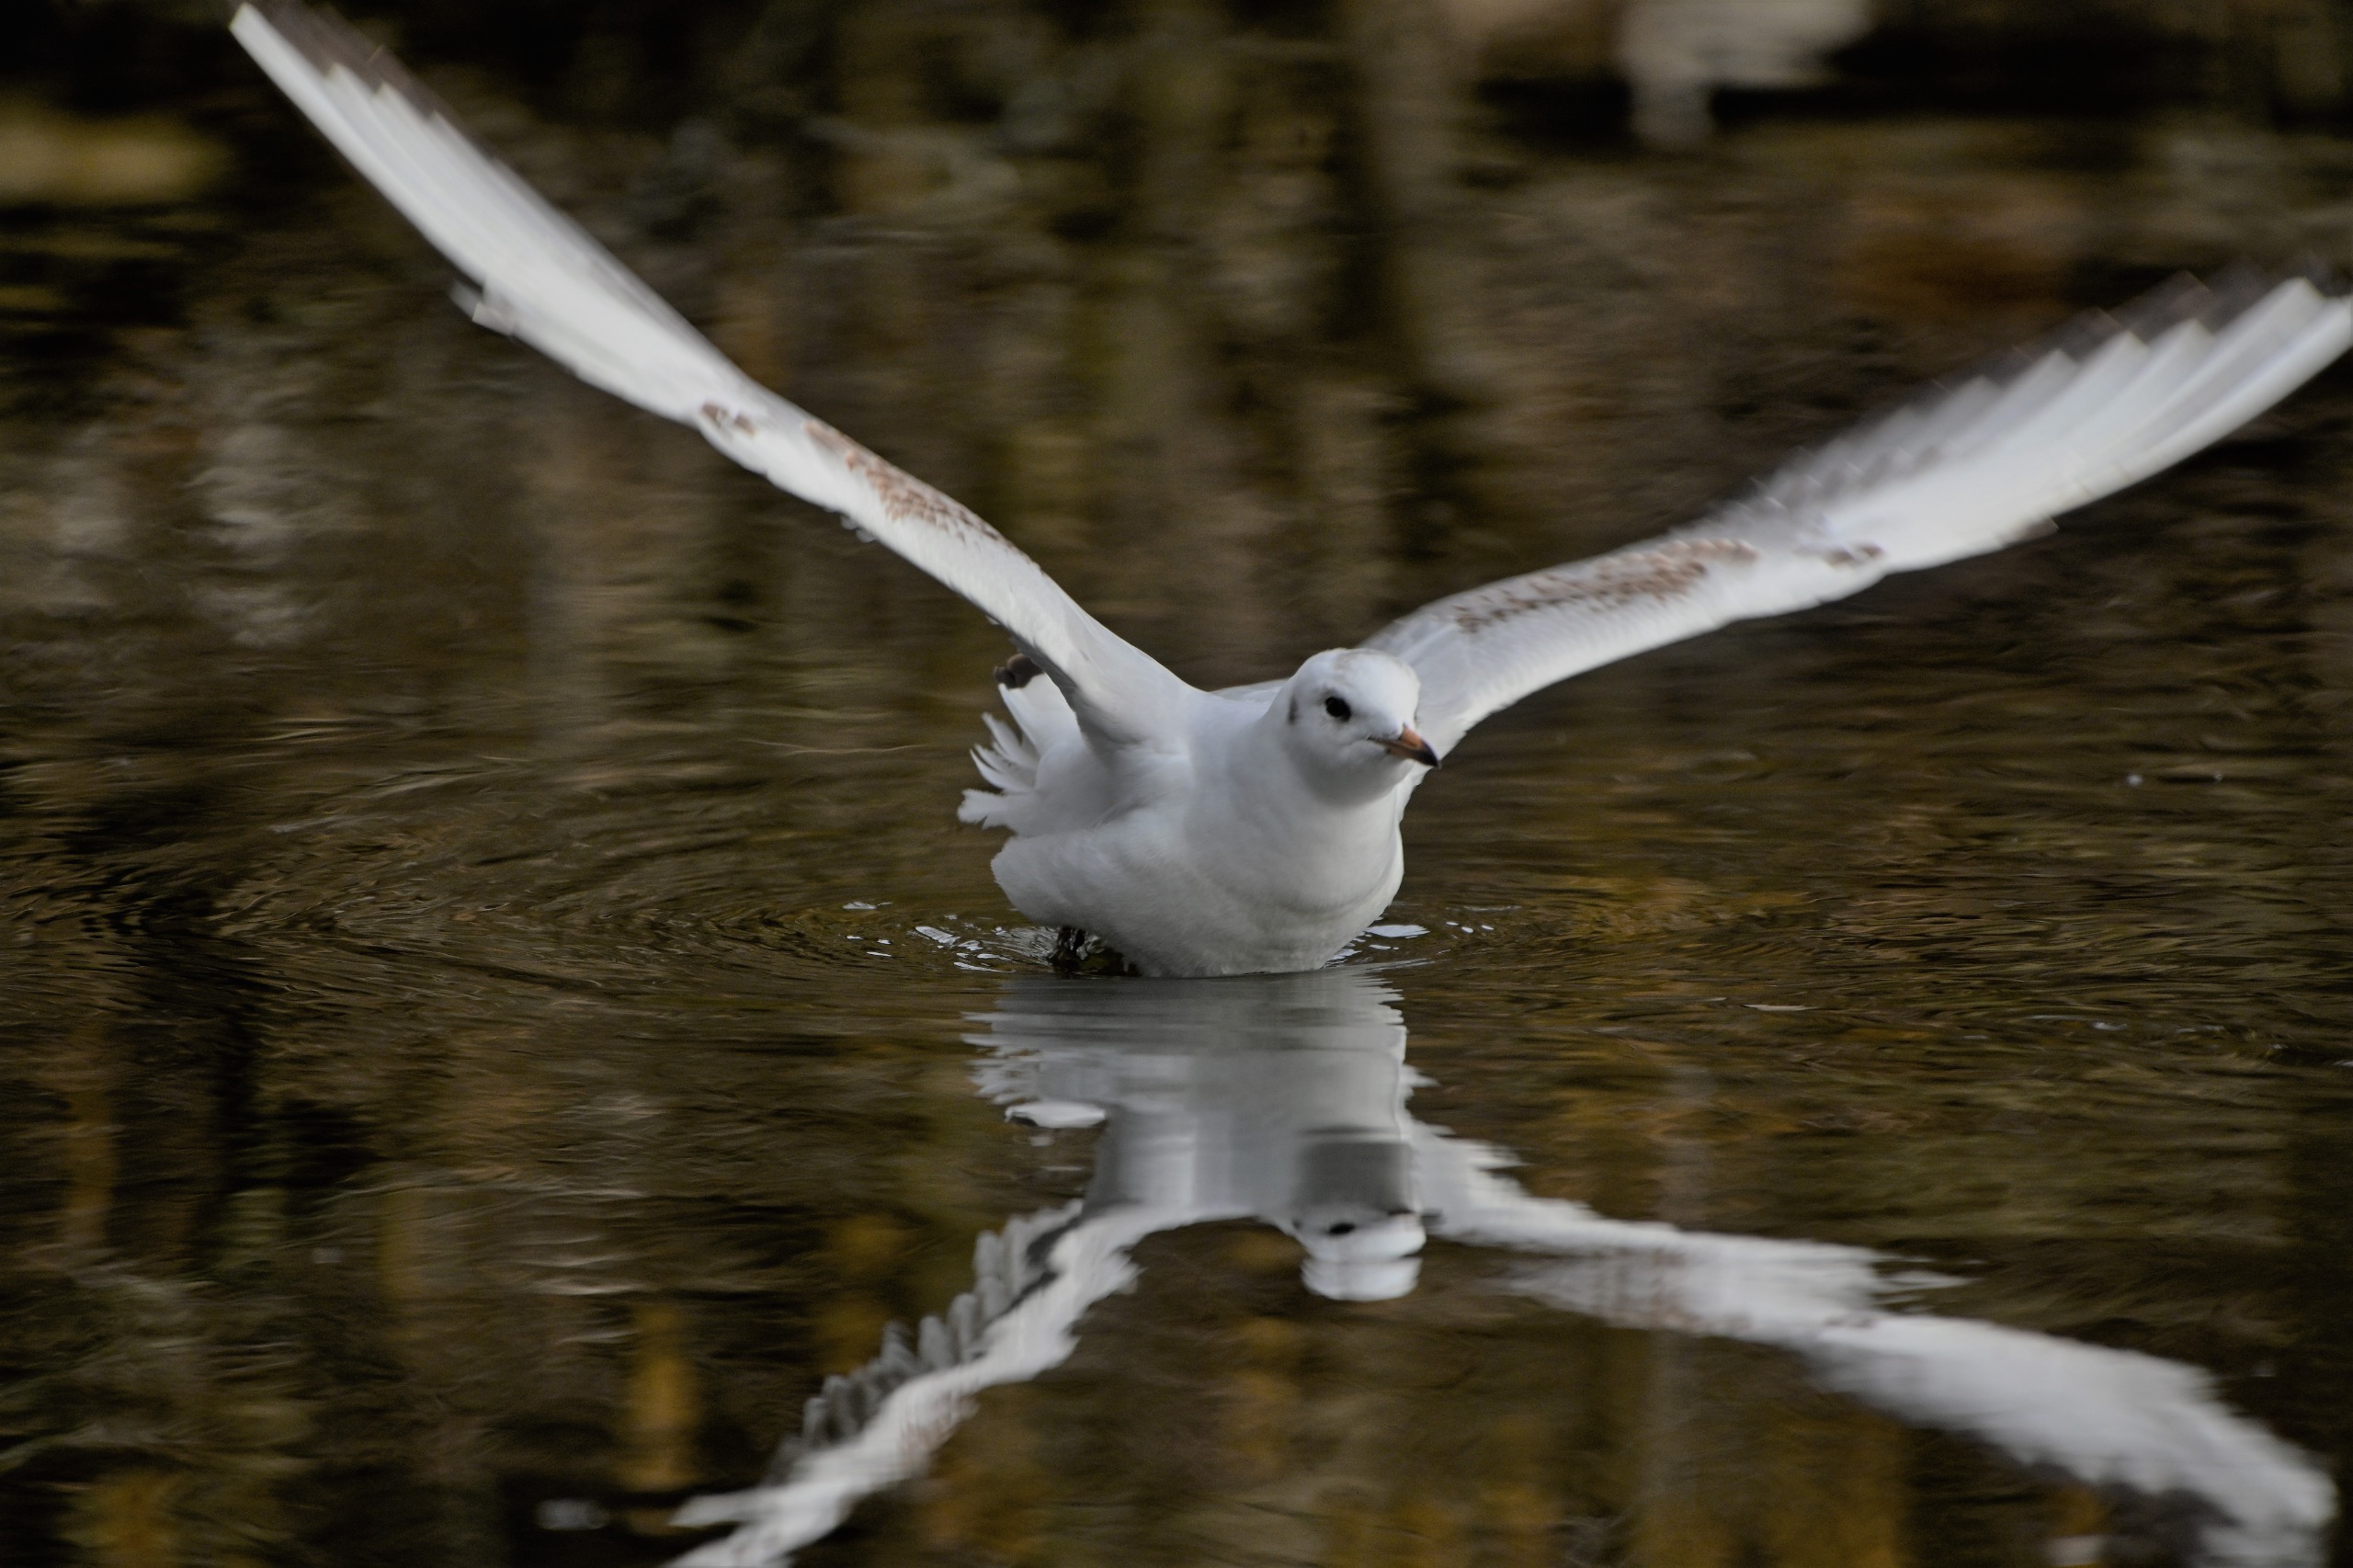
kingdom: Animalia
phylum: Chordata
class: Aves
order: Charadriiformes
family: Laridae
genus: Chroicocephalus
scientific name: Chroicocephalus ridibundus
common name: Hættemåge
